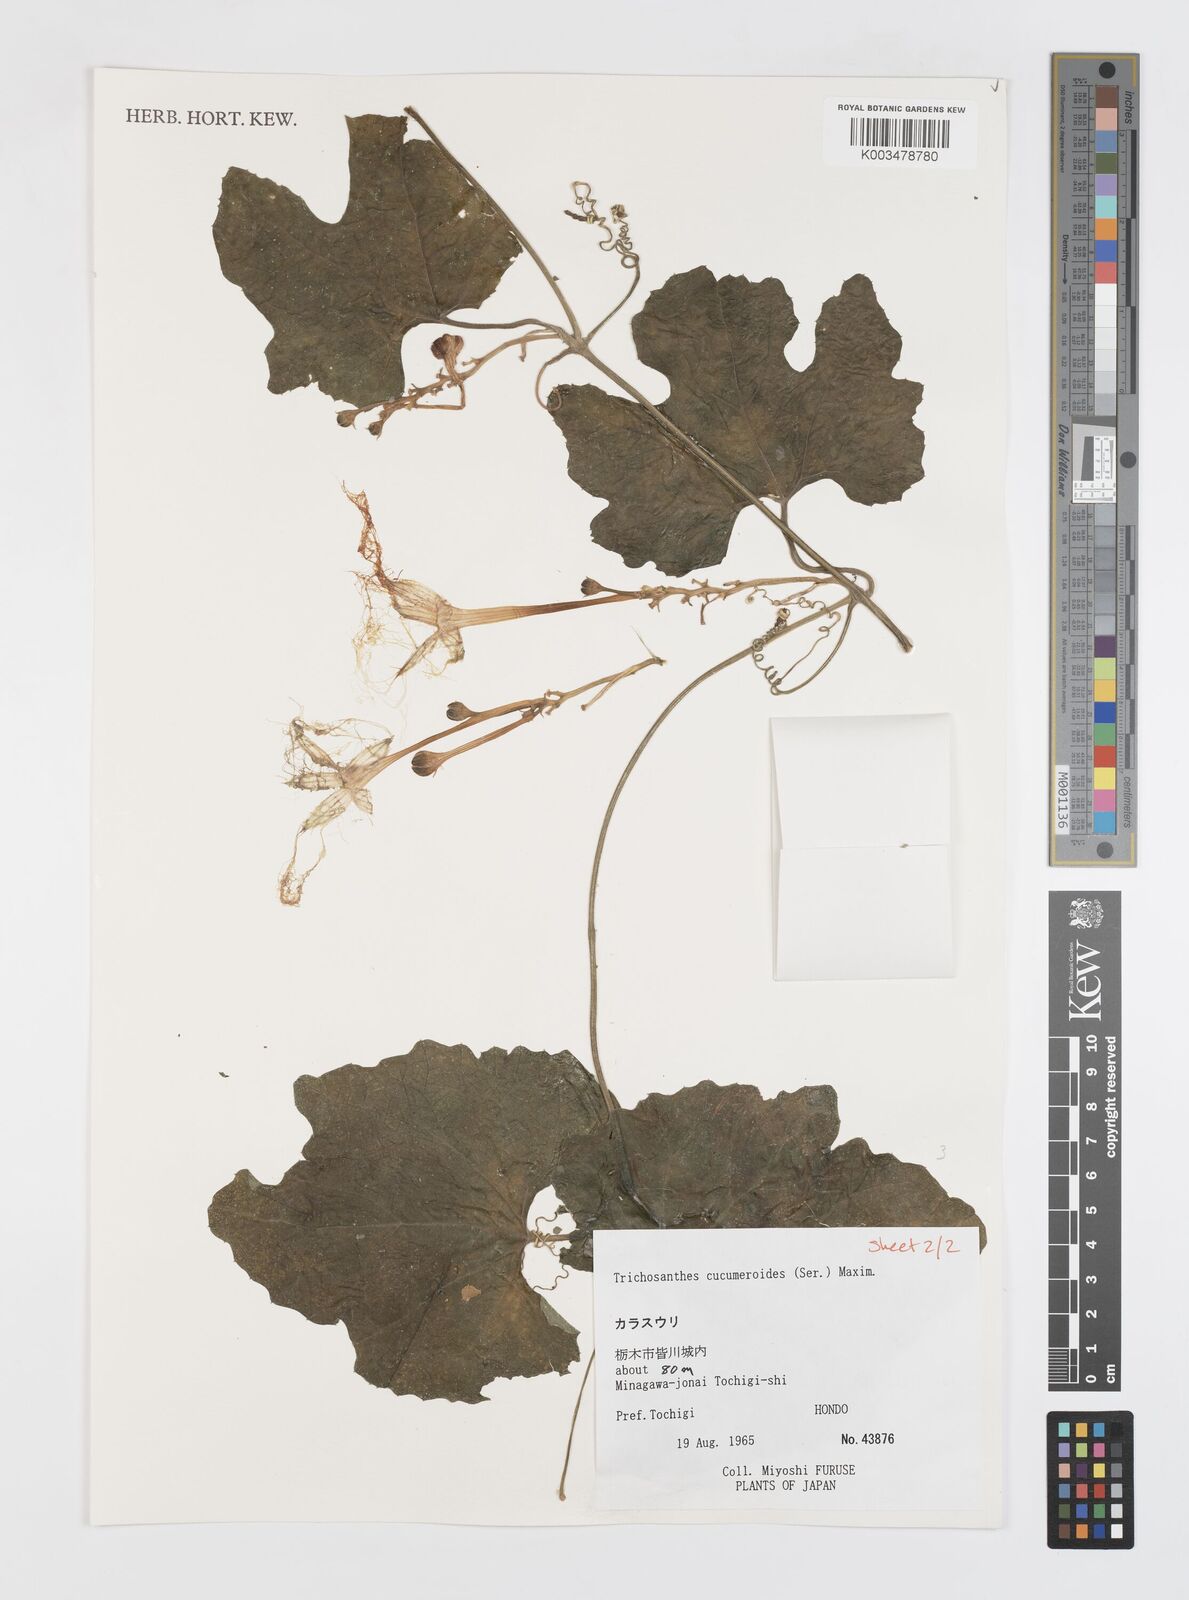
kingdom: Plantae
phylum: Tracheophyta
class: Magnoliopsida
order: Cucurbitales
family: Cucurbitaceae
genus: Trichosanthes
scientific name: Trichosanthes cucumeroides
